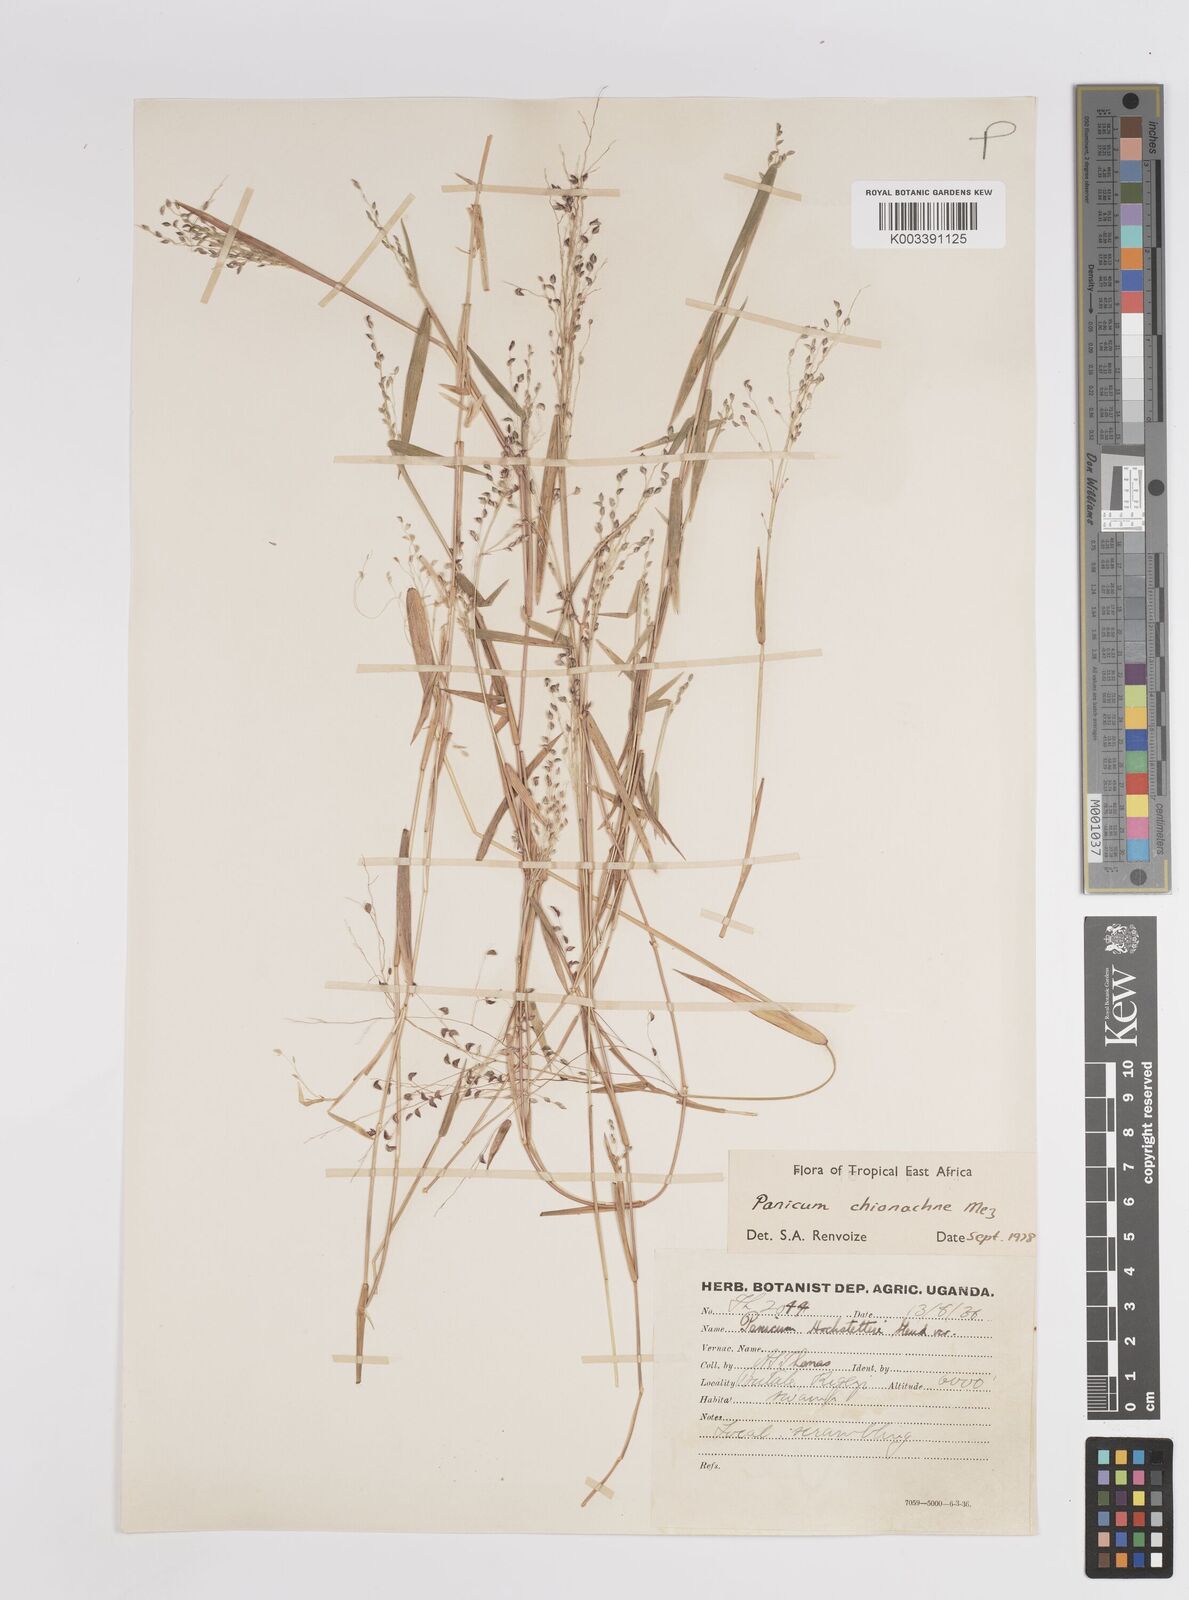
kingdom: Plantae
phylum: Tracheophyta
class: Liliopsida
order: Poales
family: Poaceae
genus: Panicum
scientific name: Panicum chionachne
